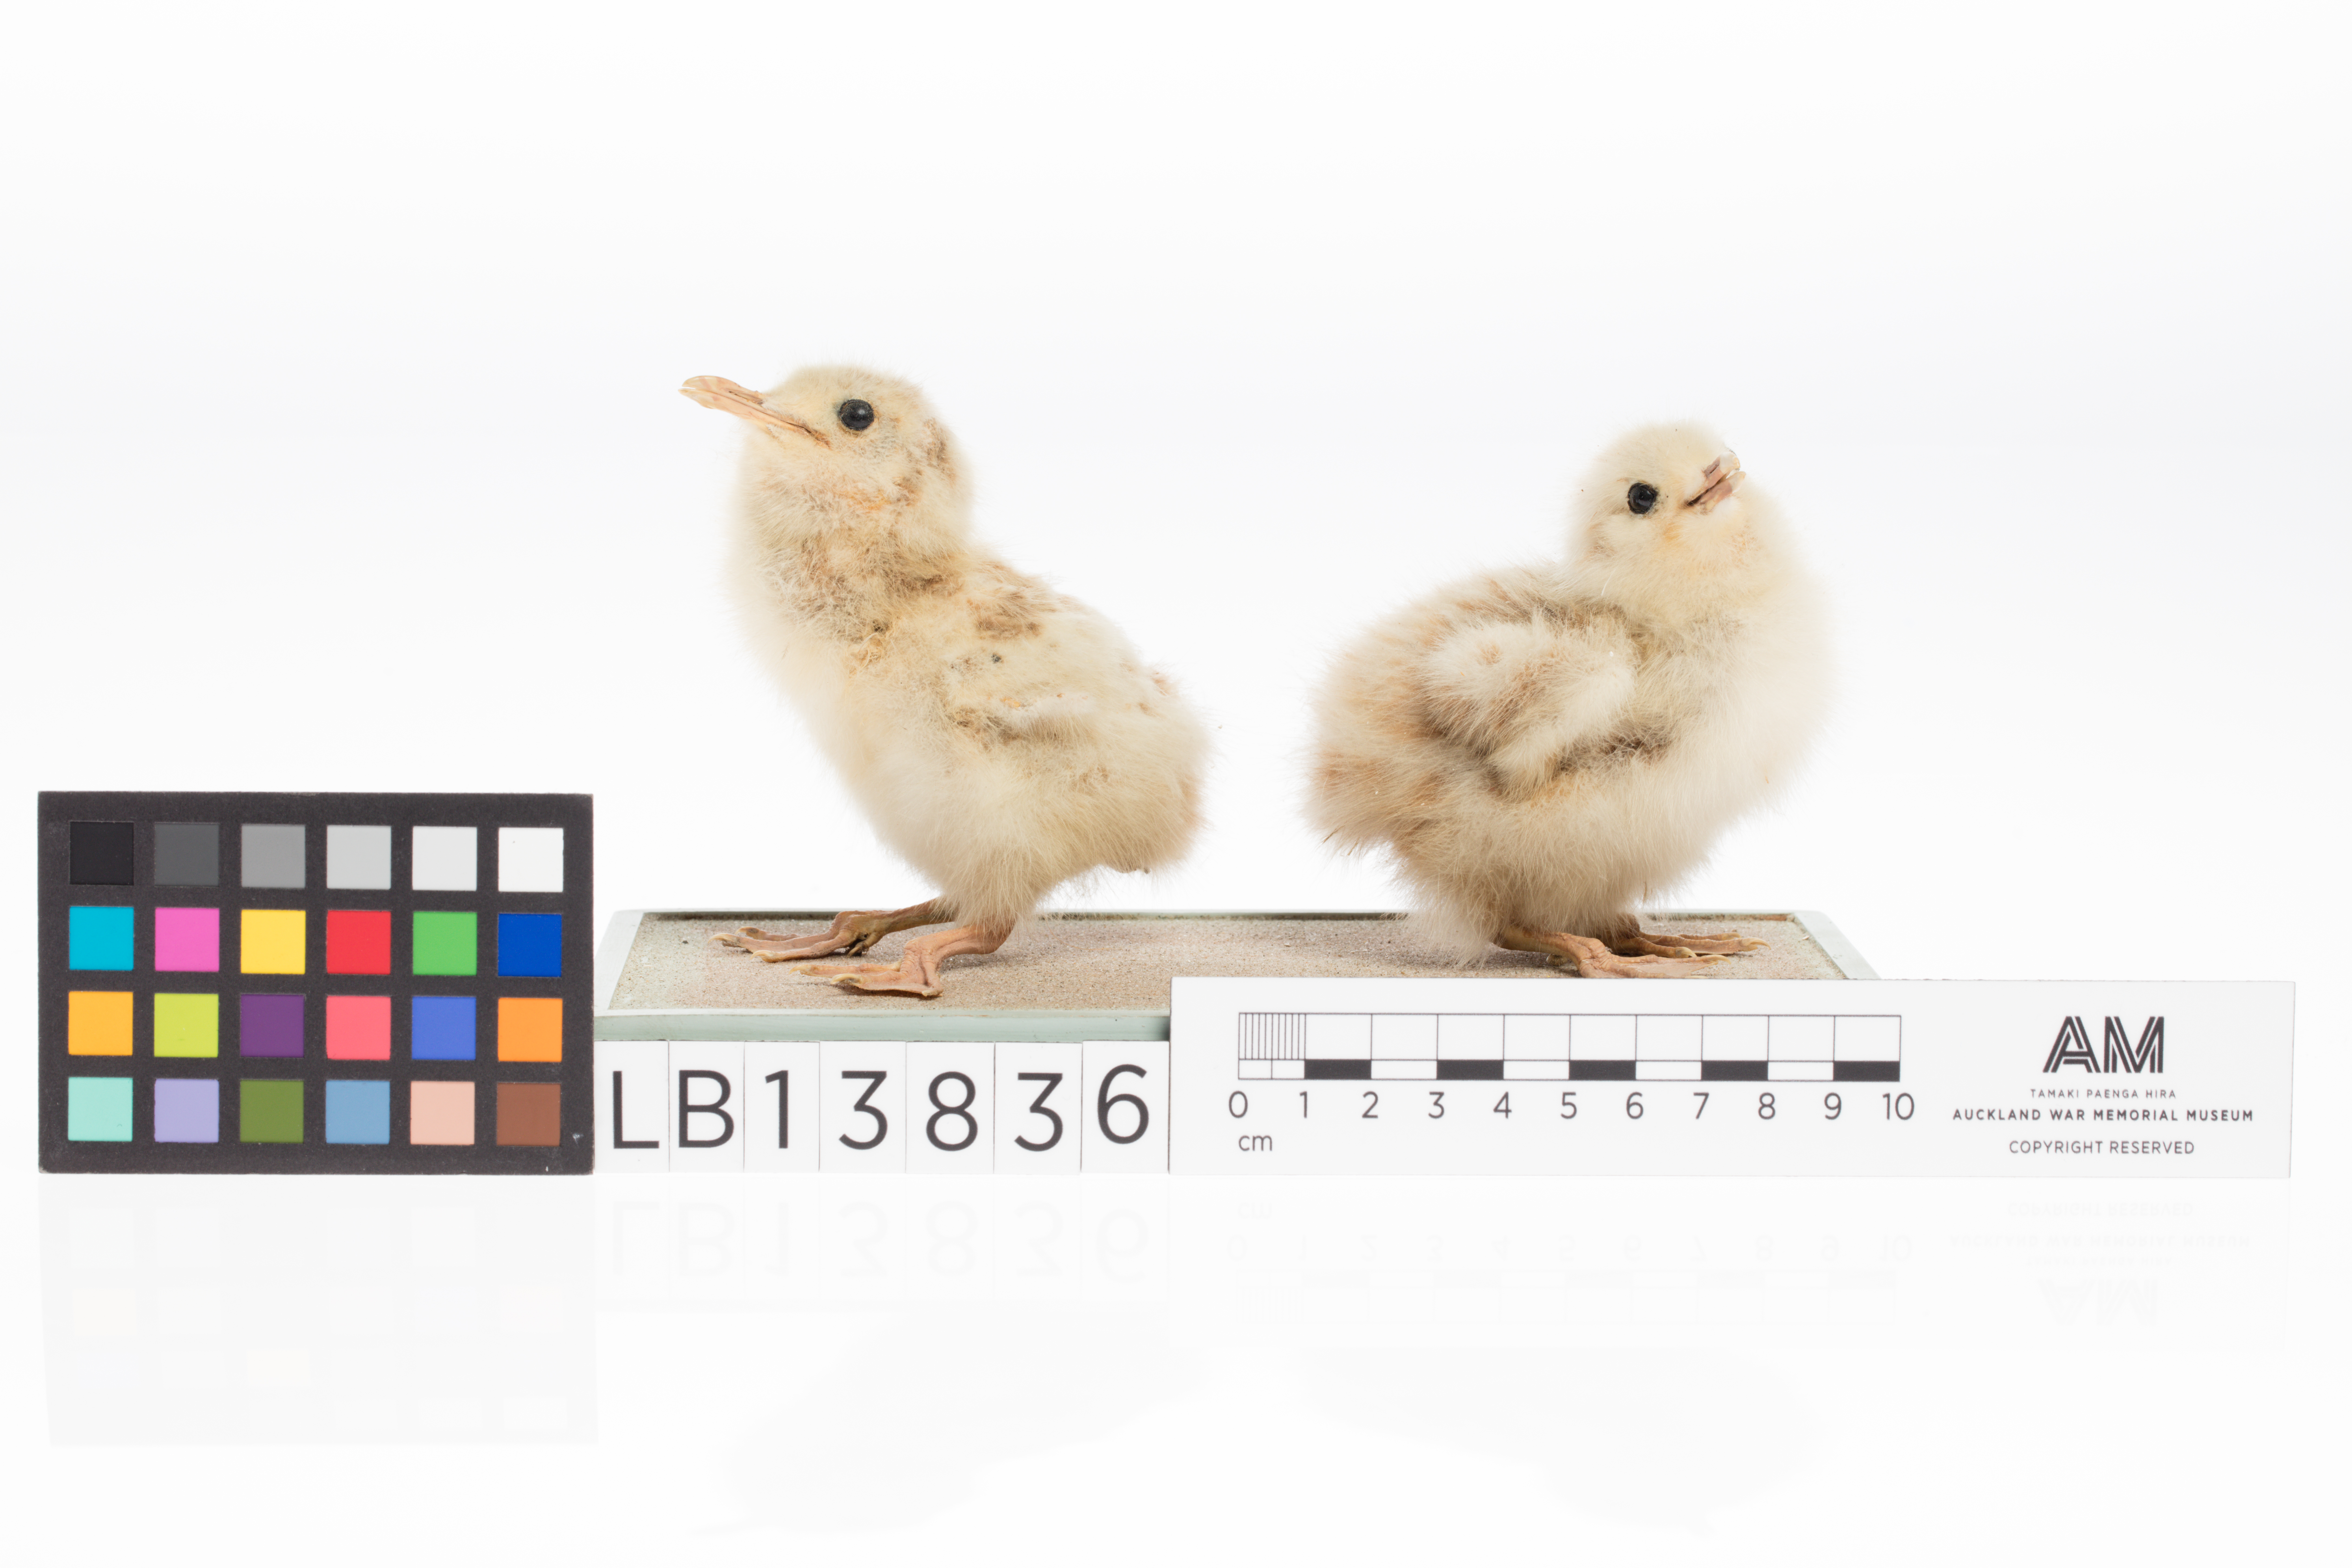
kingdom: Animalia
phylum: Chordata
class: Aves
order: Charadriiformes
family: Laridae
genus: Chroicocephalus
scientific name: Chroicocephalus bulleri
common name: Black-billed gull
